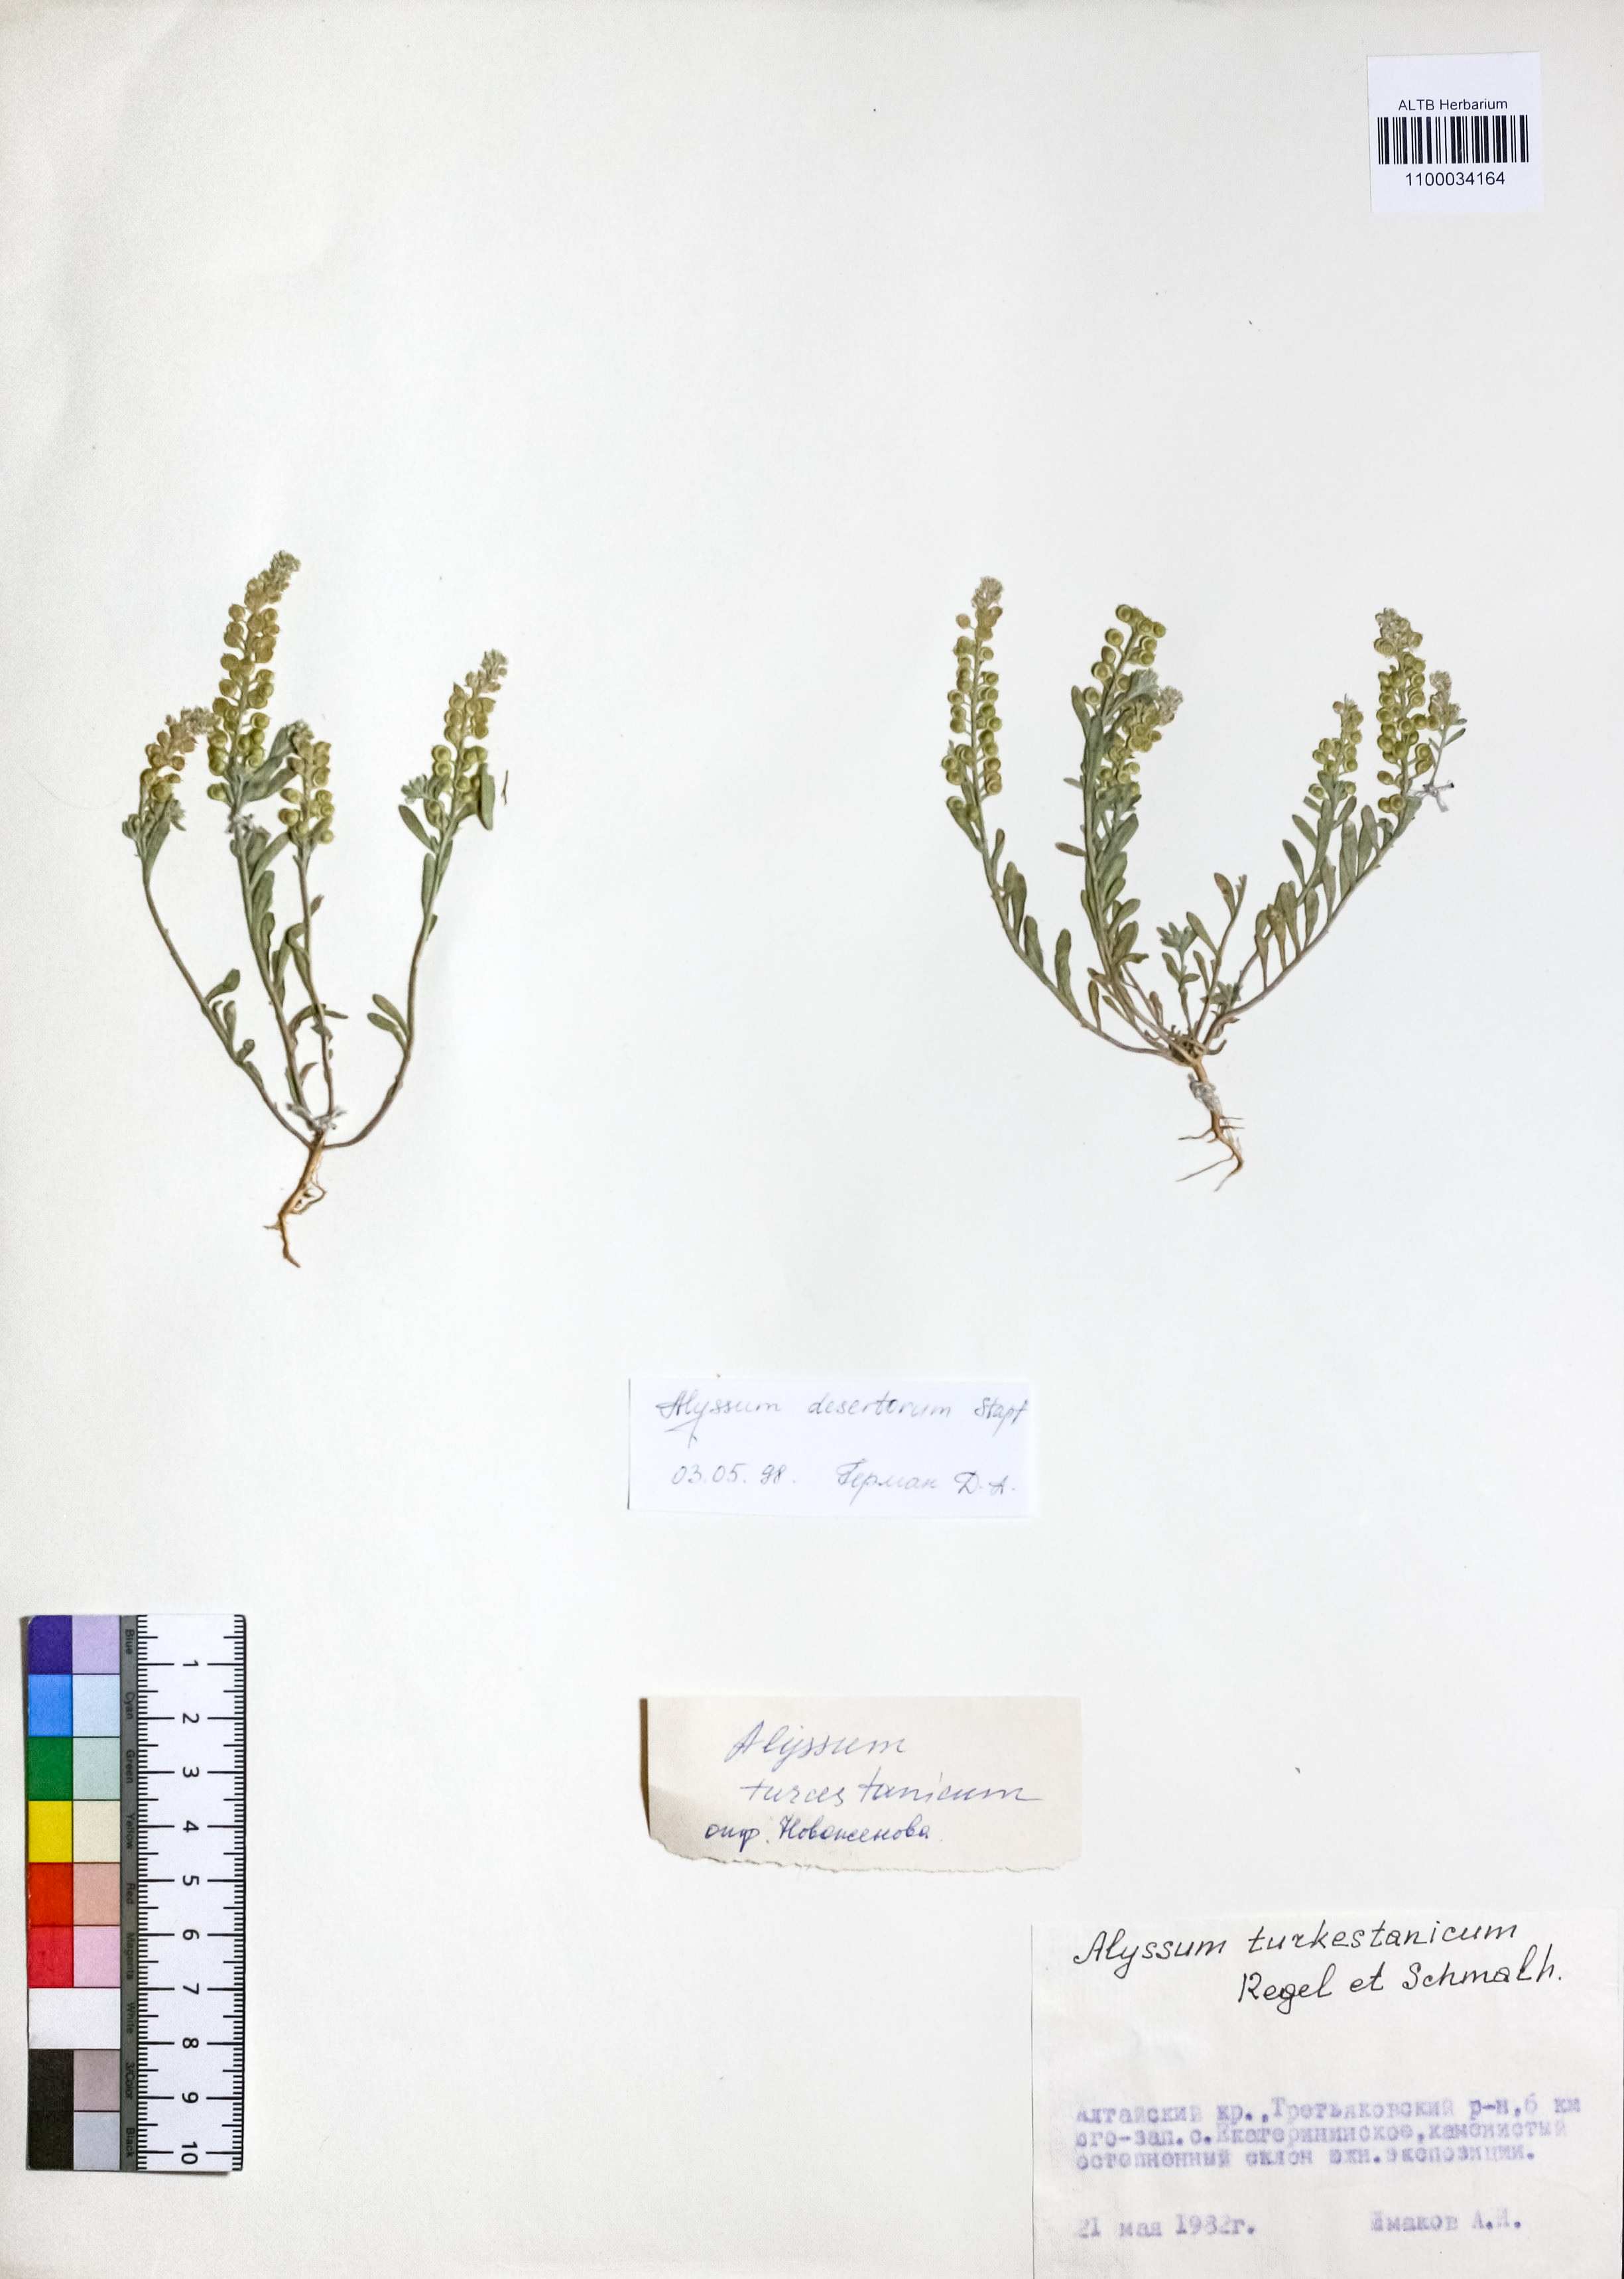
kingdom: Plantae
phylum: Tracheophyta
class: Magnoliopsida
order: Brassicales
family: Brassicaceae
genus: Alyssum
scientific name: Alyssum turkestanicum
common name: Desert alyssum
